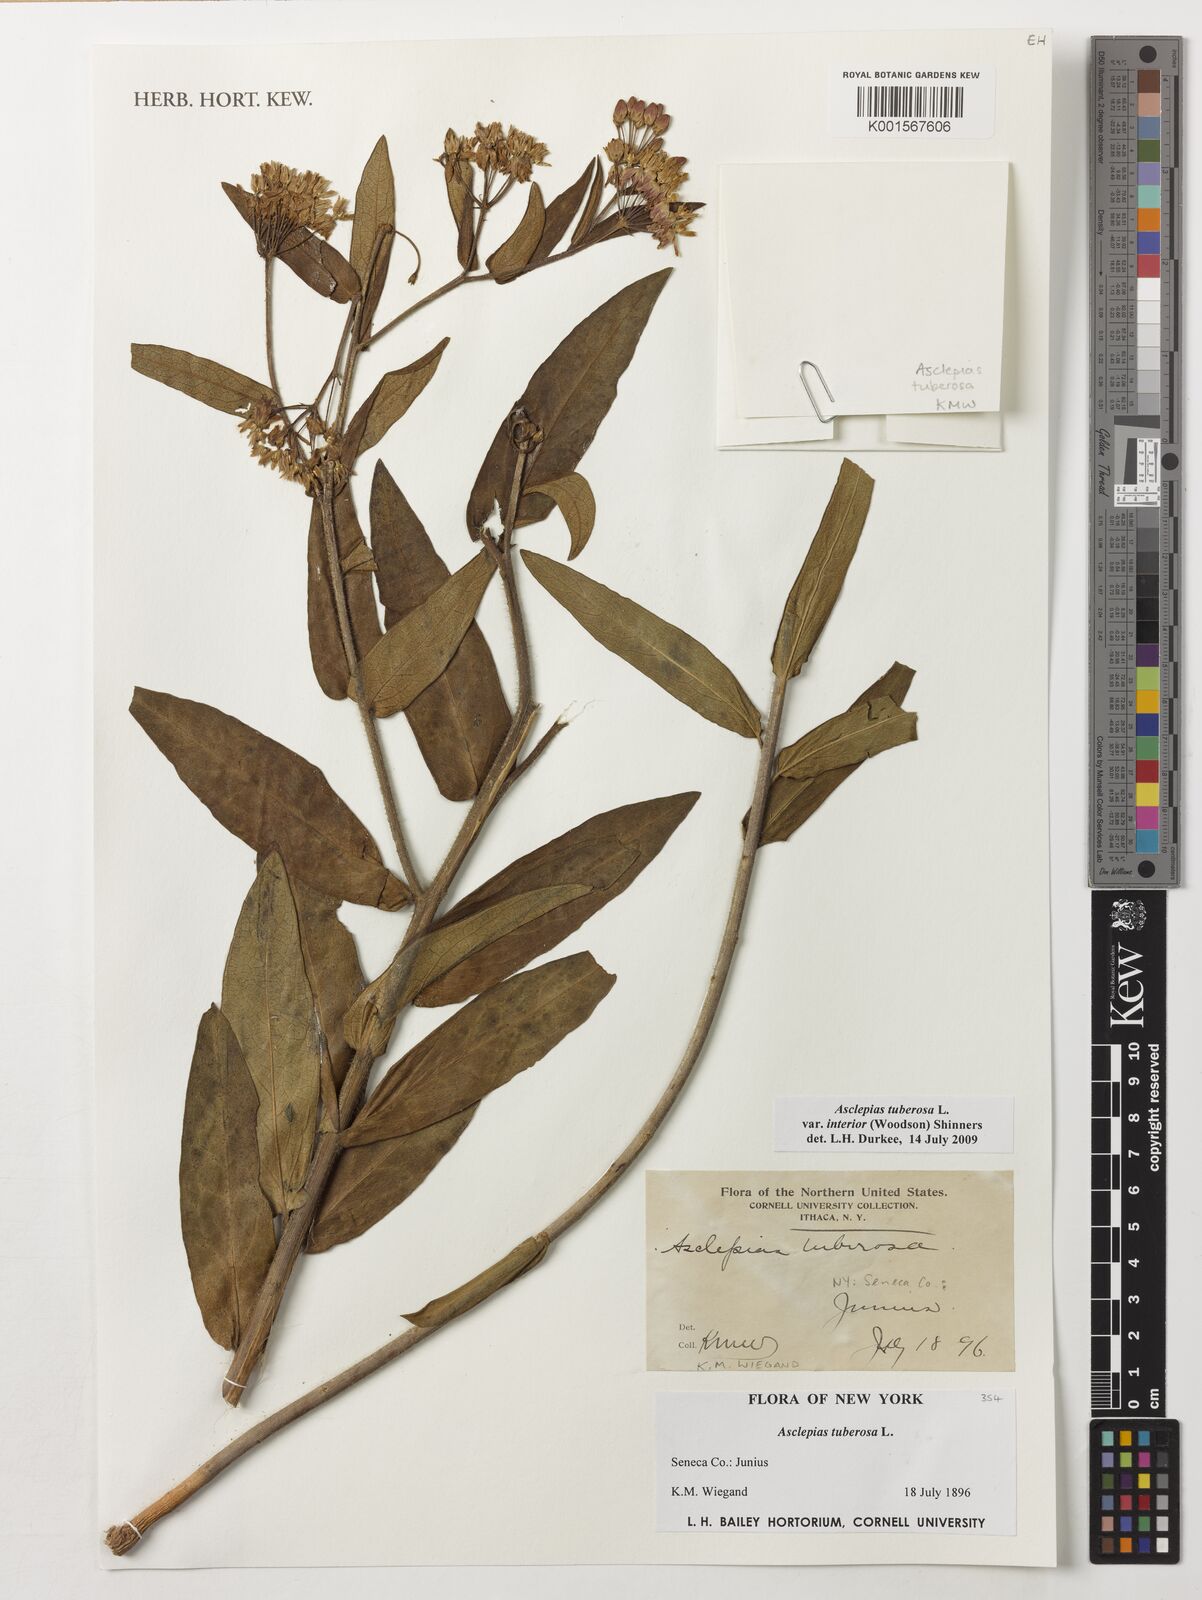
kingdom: Plantae
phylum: Tracheophyta
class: Magnoliopsida
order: Gentianales
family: Apocynaceae
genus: Asclepias
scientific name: Asclepias tuberosa
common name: Butterfly milkweed
